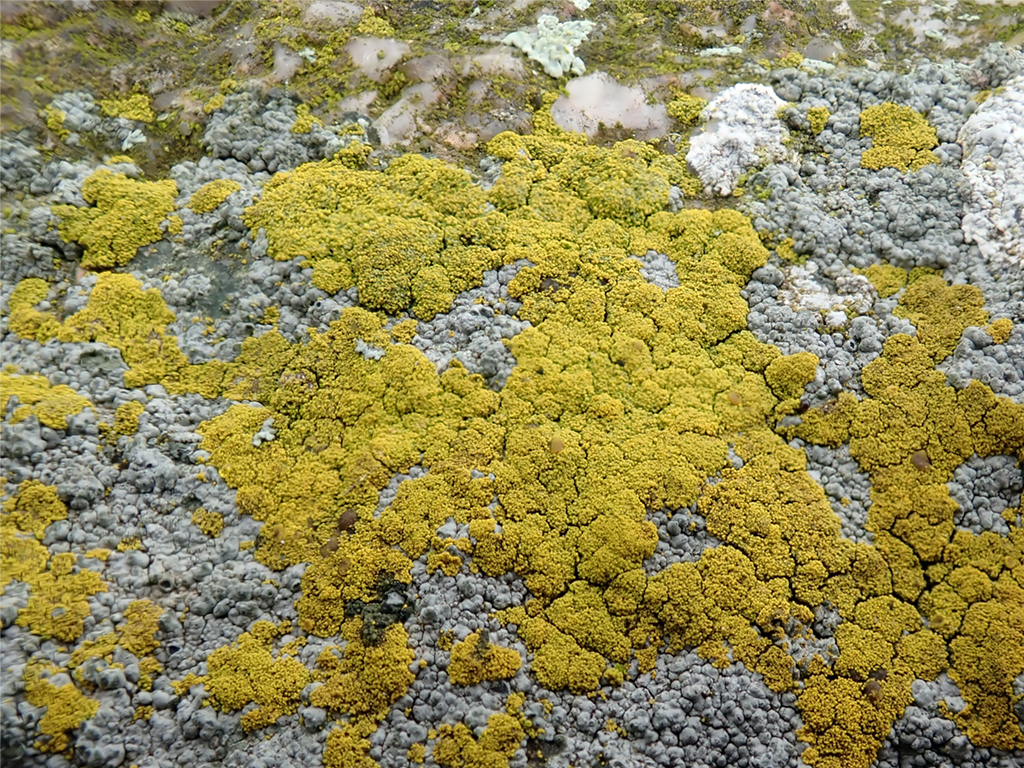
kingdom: Fungi
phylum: Ascomycota
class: Candelariomycetes
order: Candelariales
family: Candelariaceae
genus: Candelariella
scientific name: Candelariella vitellina
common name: almindelig æggeblommelav
